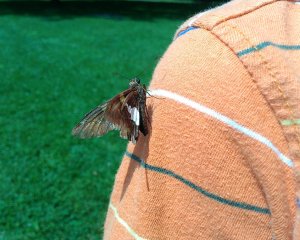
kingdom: Animalia
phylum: Arthropoda
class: Insecta
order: Lepidoptera
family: Hesperiidae
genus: Epargyreus
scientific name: Epargyreus clarus
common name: Silver-spotted Skipper
